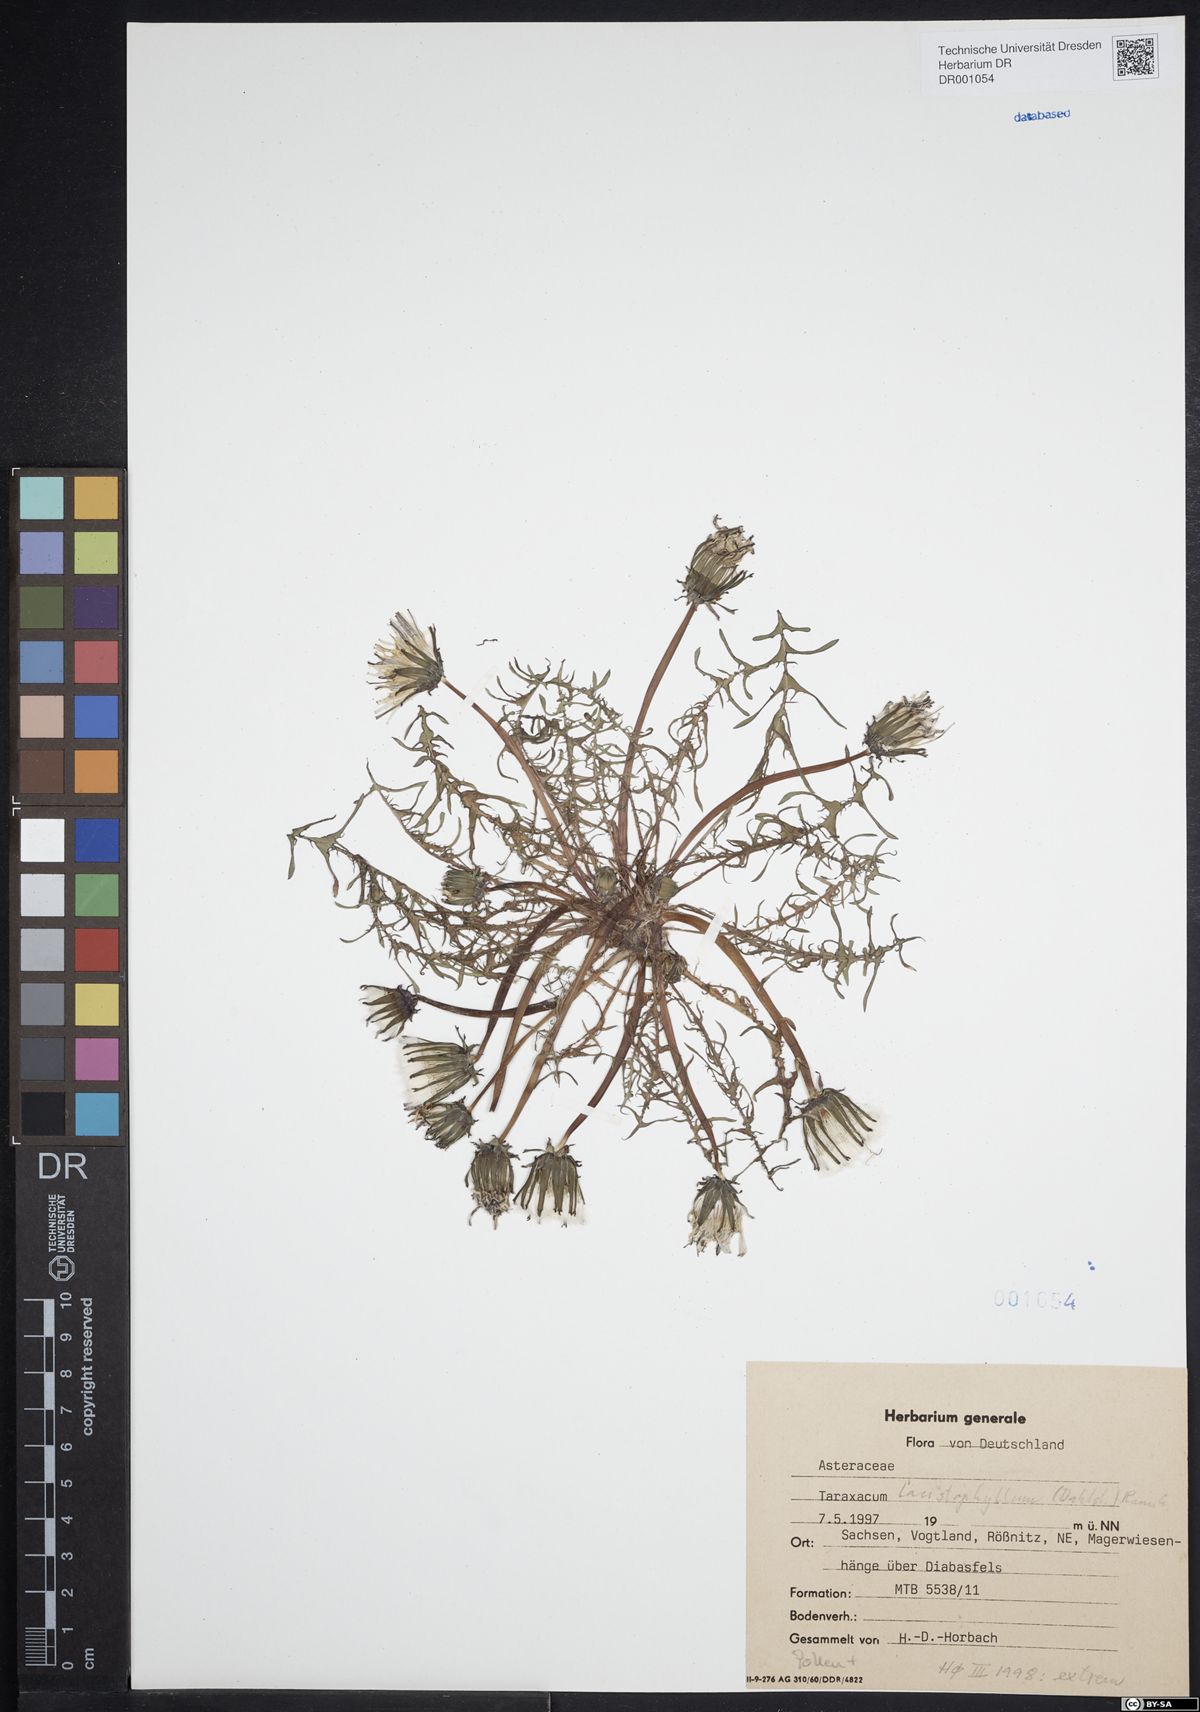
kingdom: Plantae
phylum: Tracheophyta
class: Magnoliopsida
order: Asterales
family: Asteraceae
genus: Taraxacum
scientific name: Taraxacum lacistophyllum
